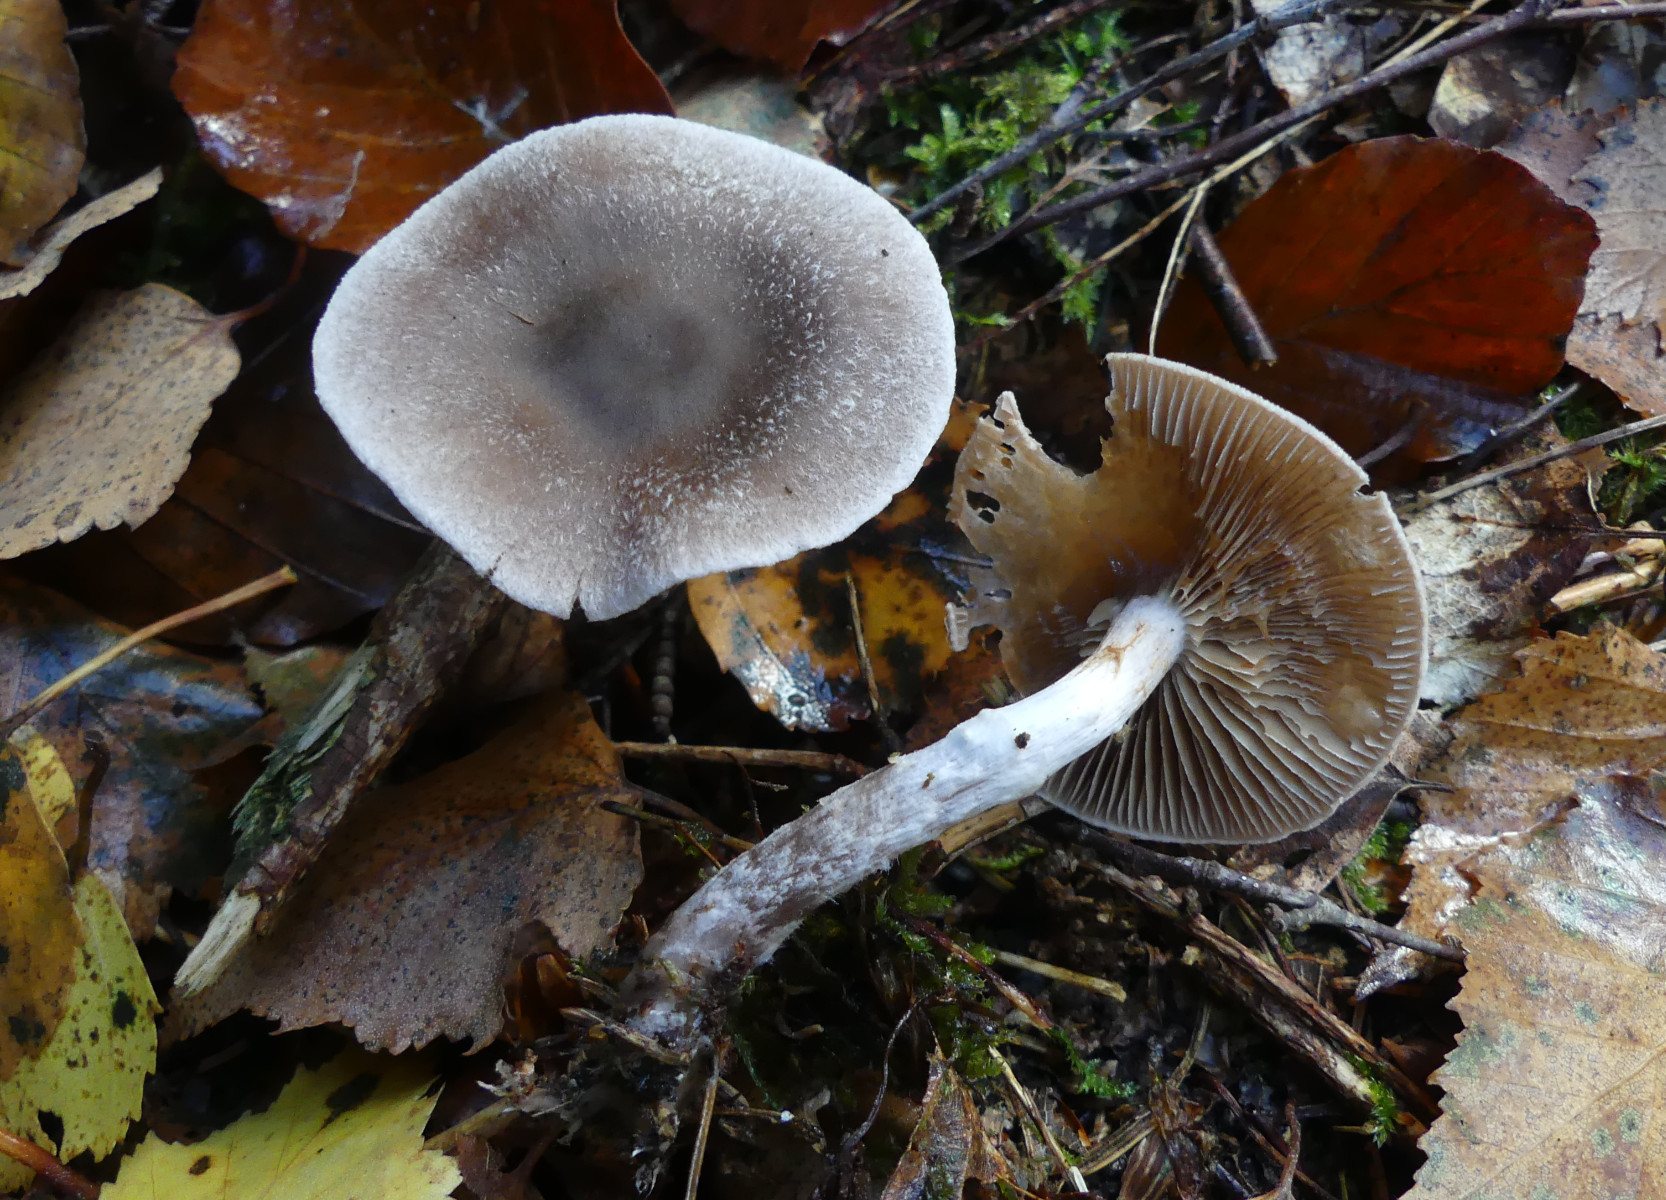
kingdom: Fungi
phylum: Basidiomycota
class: Agaricomycetes
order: Agaricales
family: Cortinariaceae
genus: Cortinarius
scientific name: Cortinarius hemitrichus
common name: hvidfnugget slørhat
